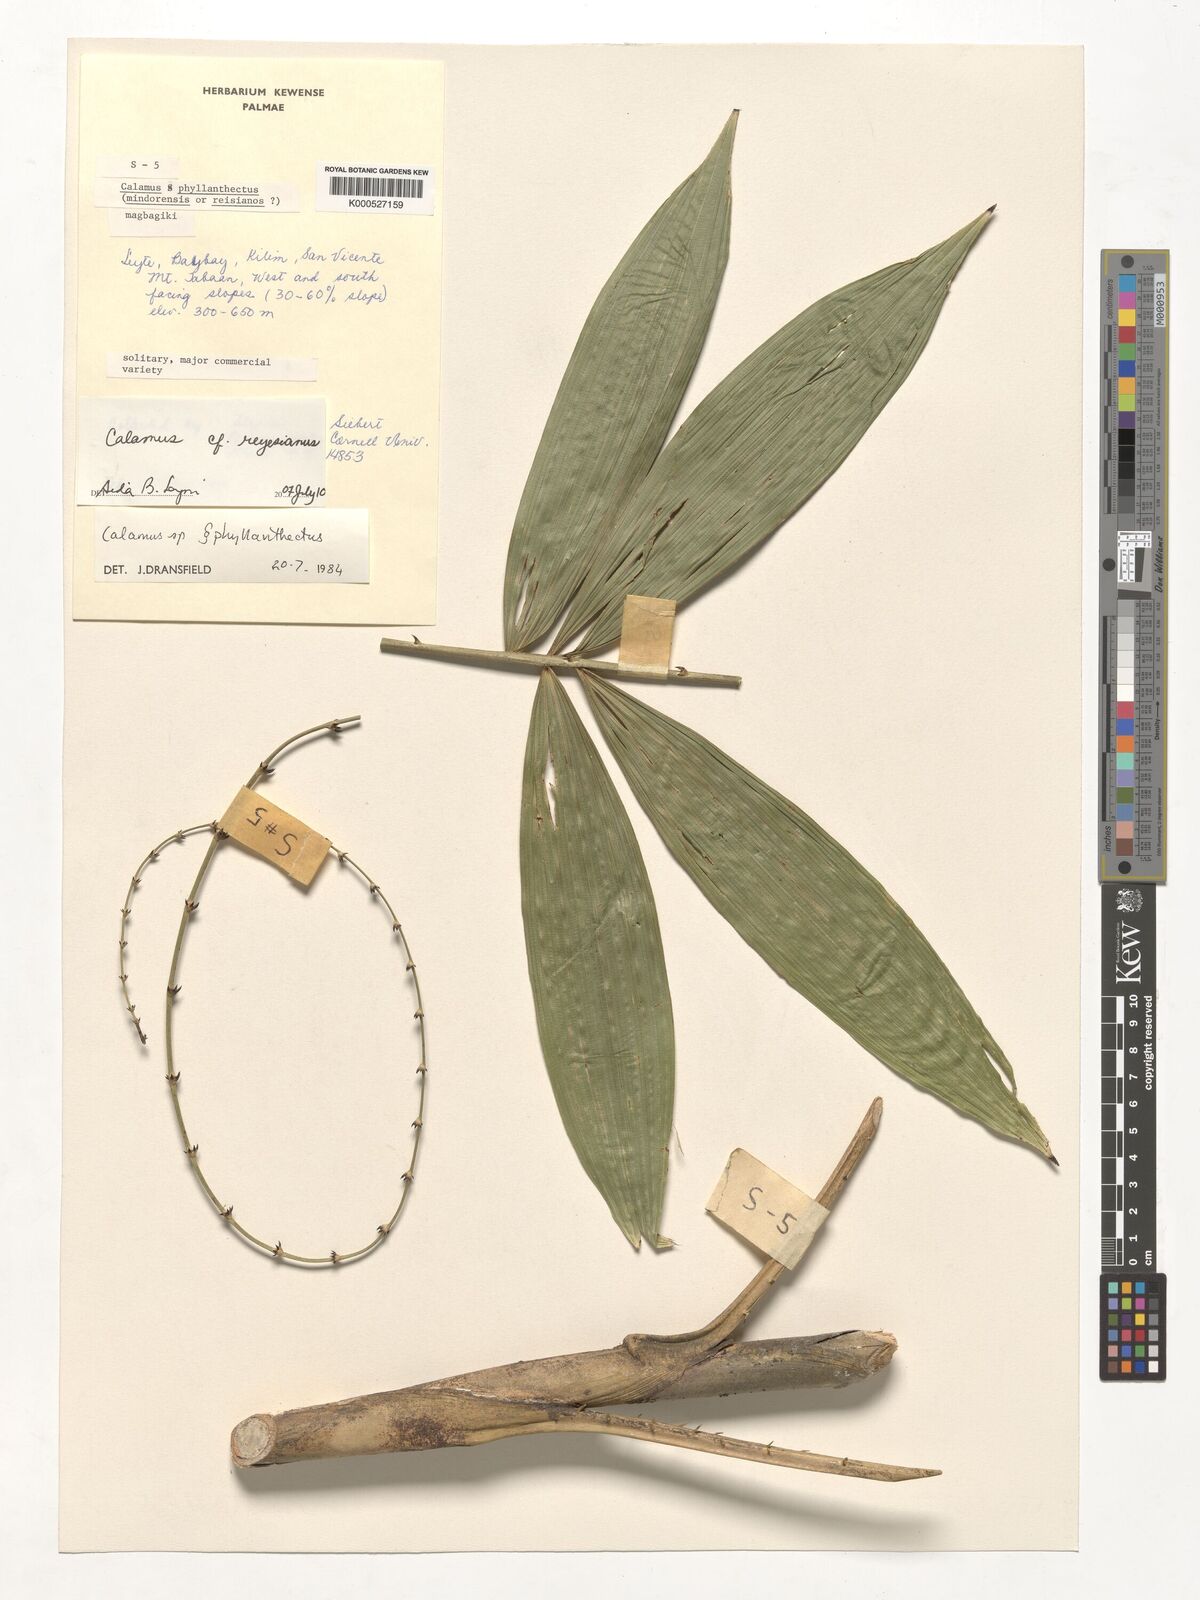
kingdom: Plantae
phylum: Tracheophyta
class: Liliopsida
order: Arecales
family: Arecaceae
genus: Calamus
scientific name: Calamus moseleyanus
